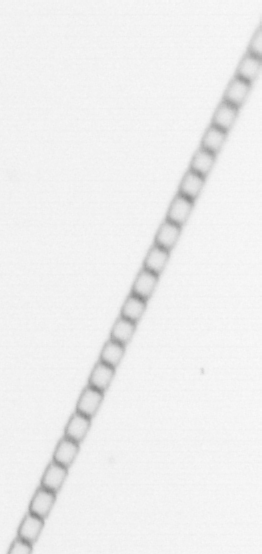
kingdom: Chromista
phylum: Ochrophyta
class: Bacillariophyceae
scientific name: Bacillariophyceae
